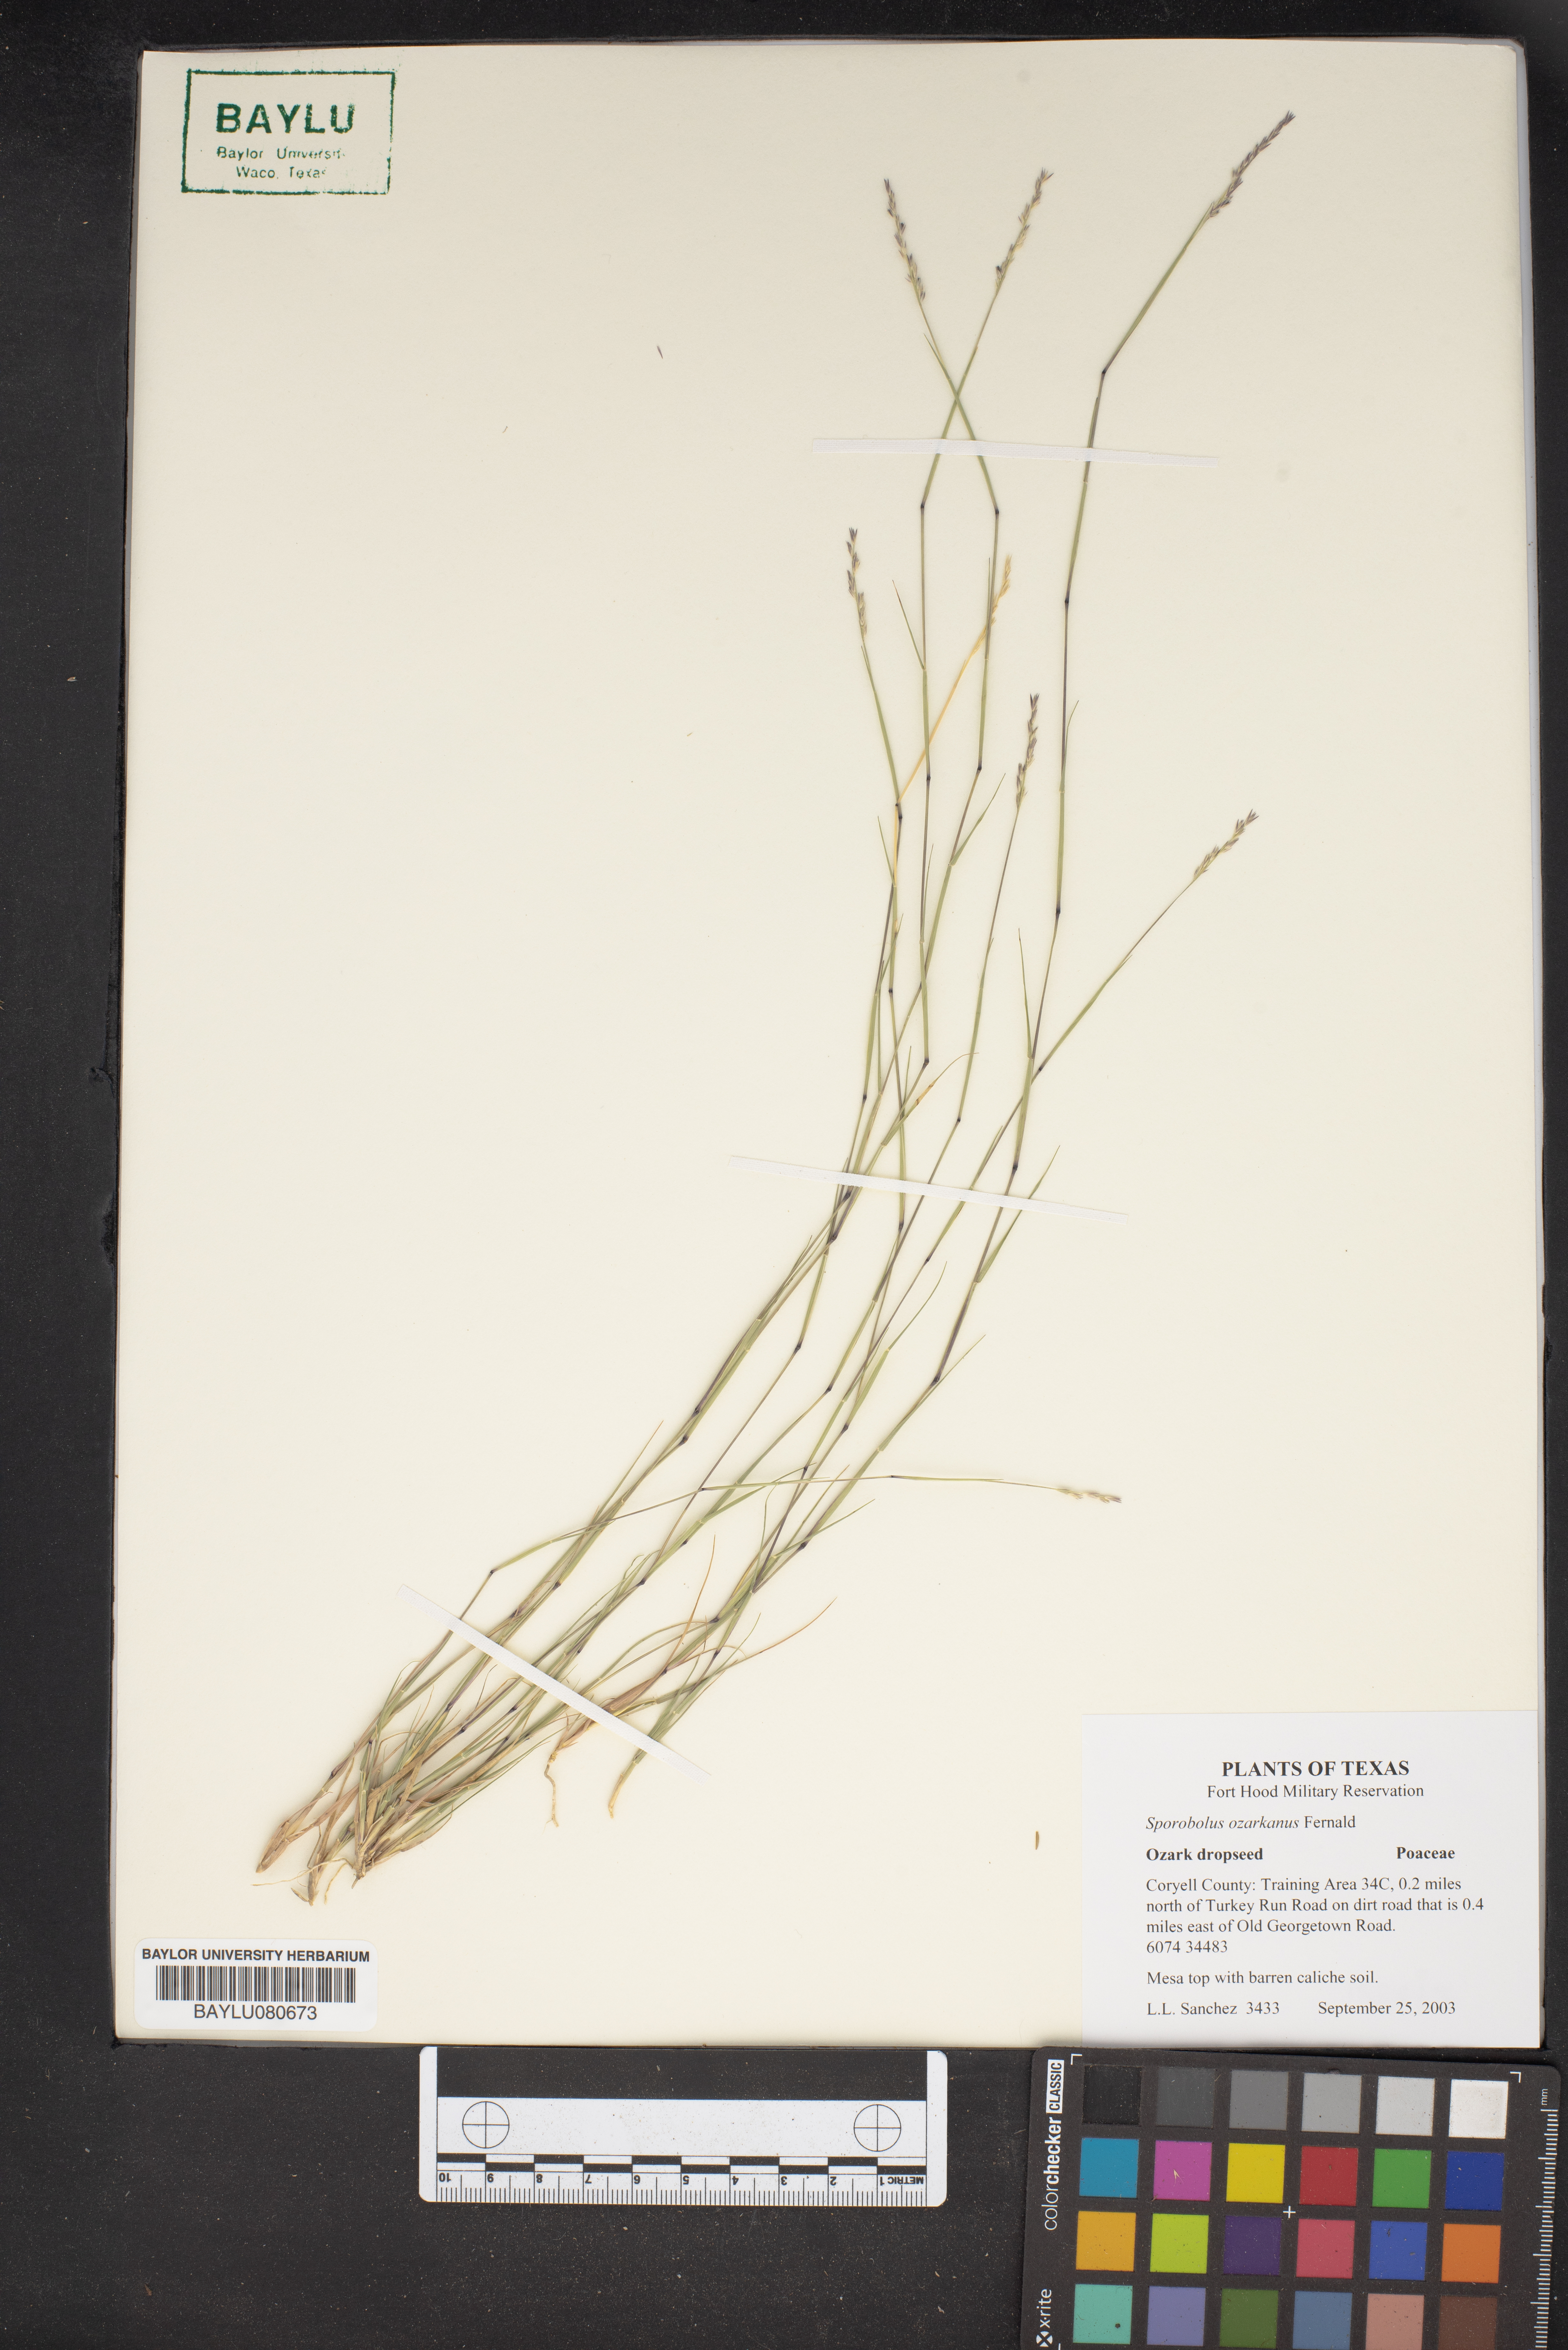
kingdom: Plantae
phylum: Tracheophyta
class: Liliopsida
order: Poales
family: Poaceae
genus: Sporobolus
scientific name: Sporobolus neglectus
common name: Annual dropseed
